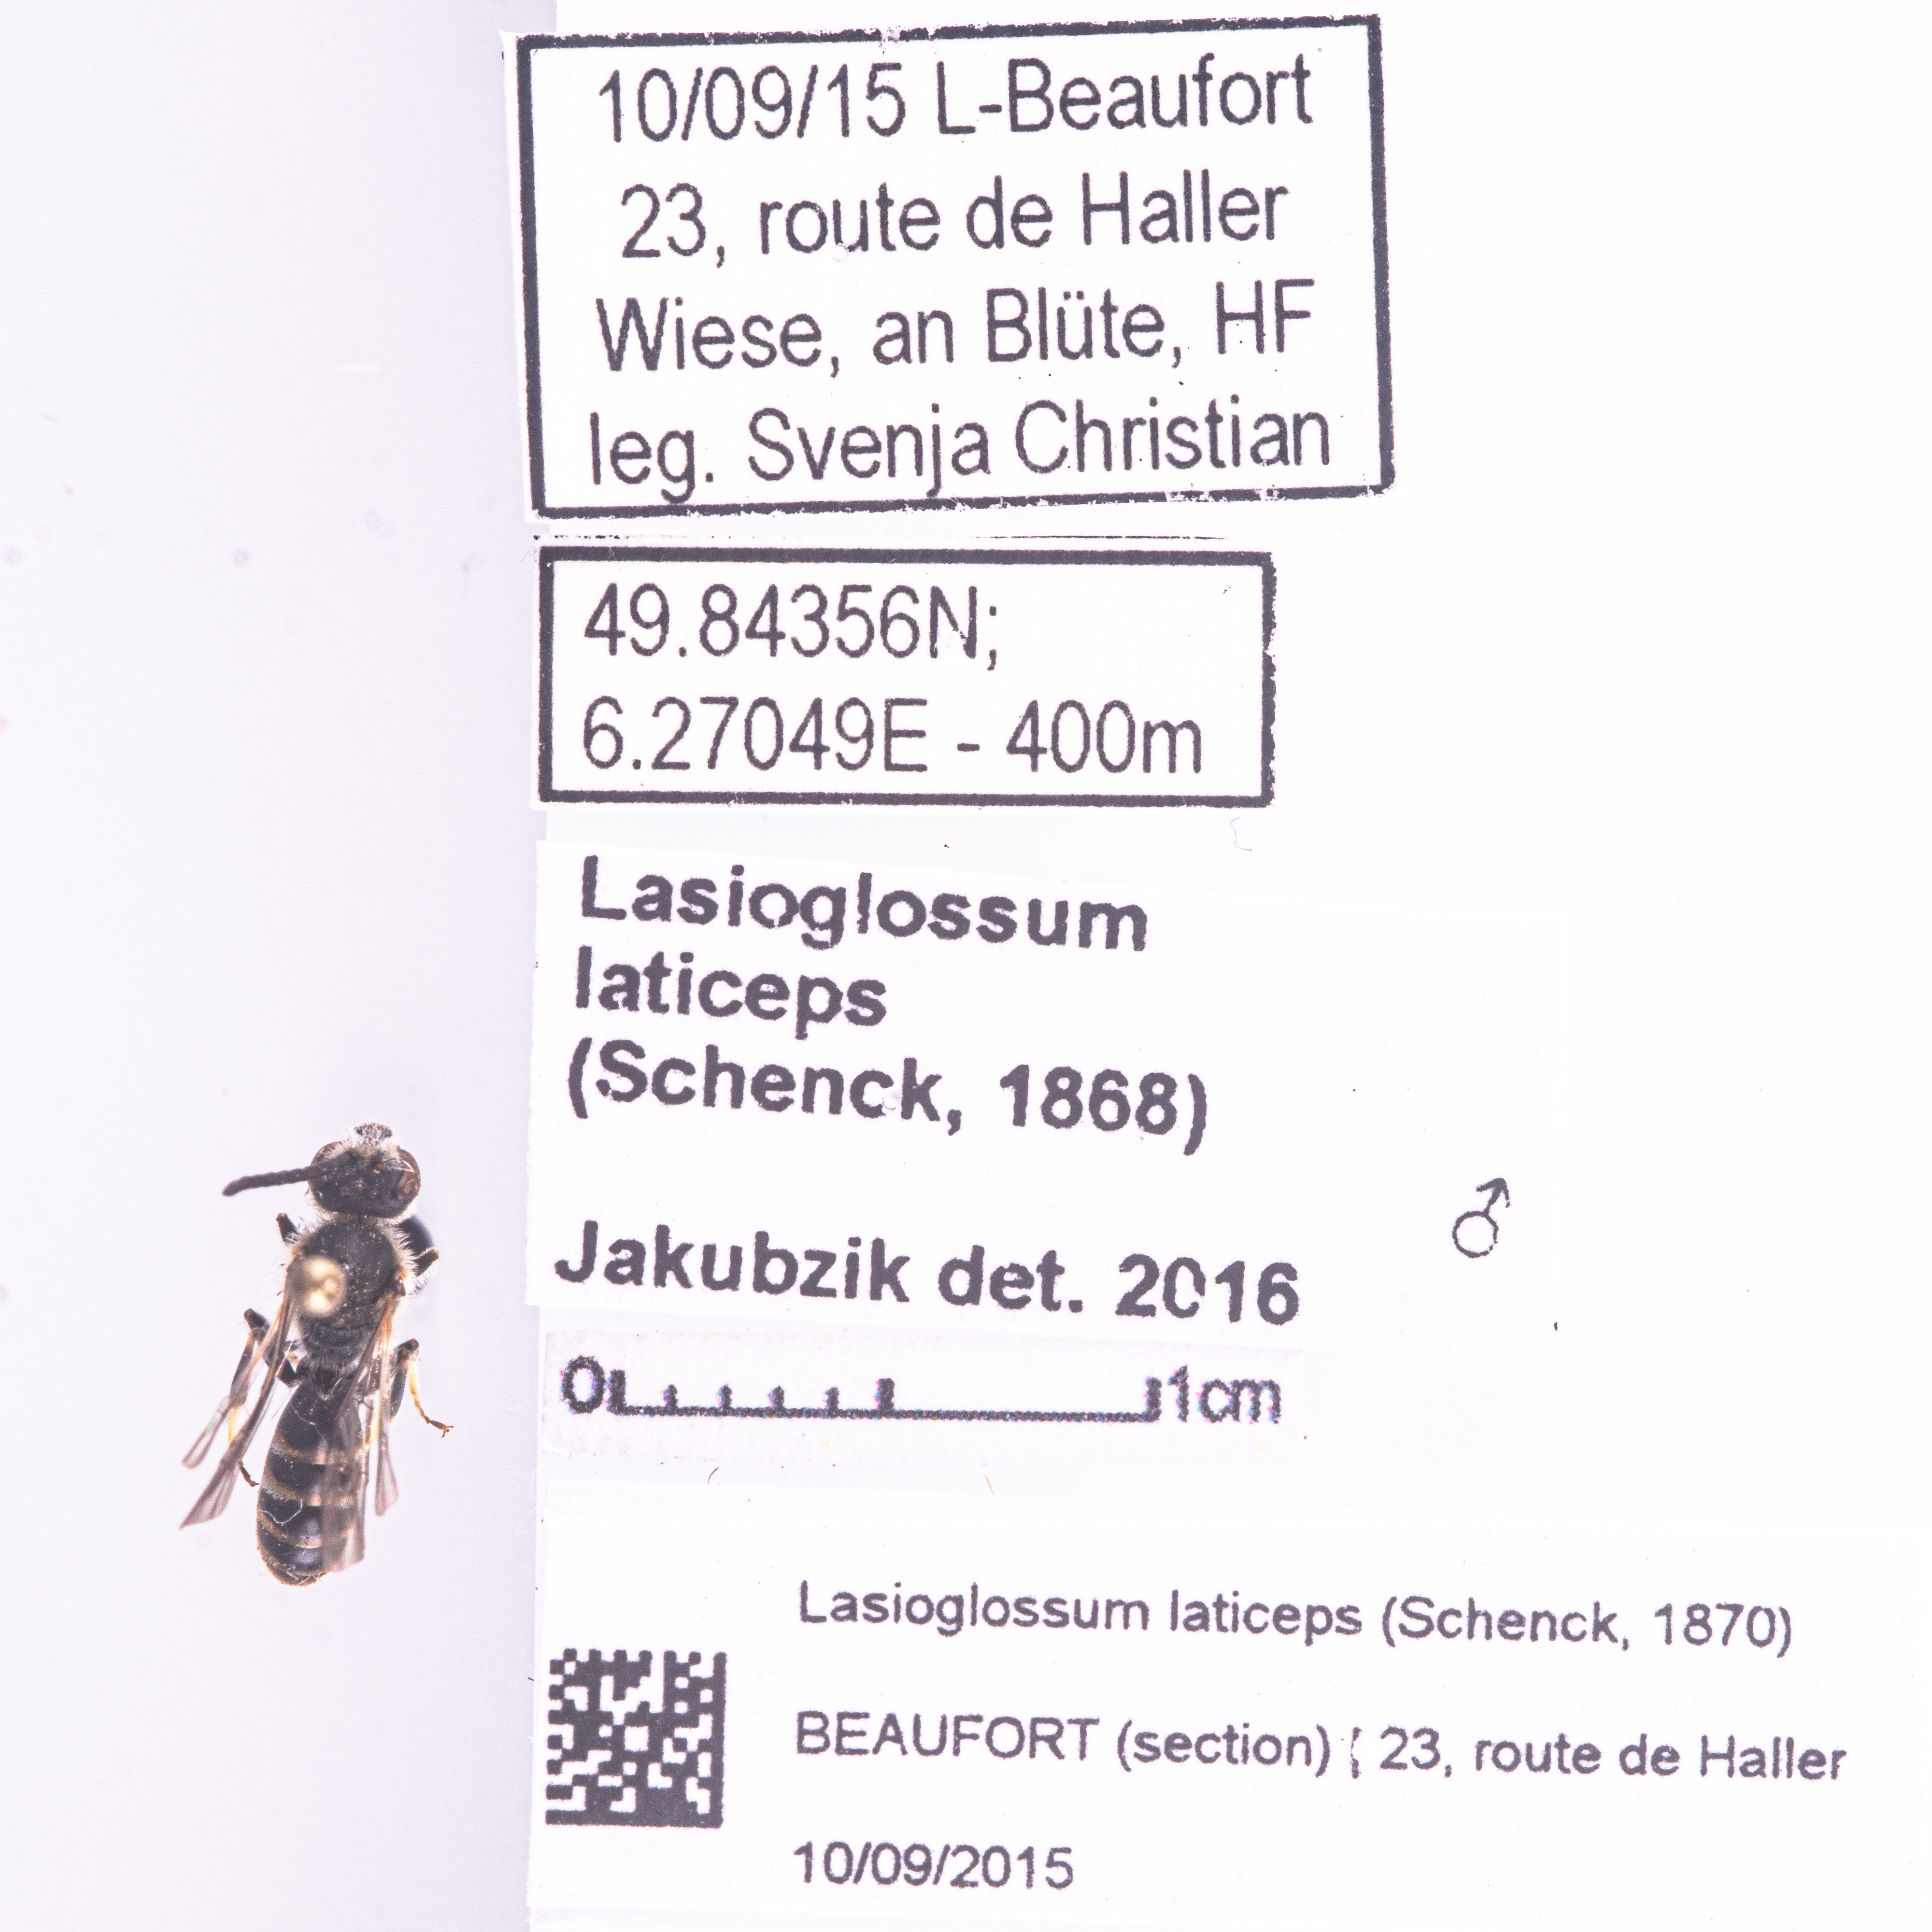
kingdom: Animalia
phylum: Arthropoda
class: Insecta
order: Hymenoptera
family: Halictidae
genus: Lasioglossum
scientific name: Lasioglossum laticeps
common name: Broad-faced furrow bee
